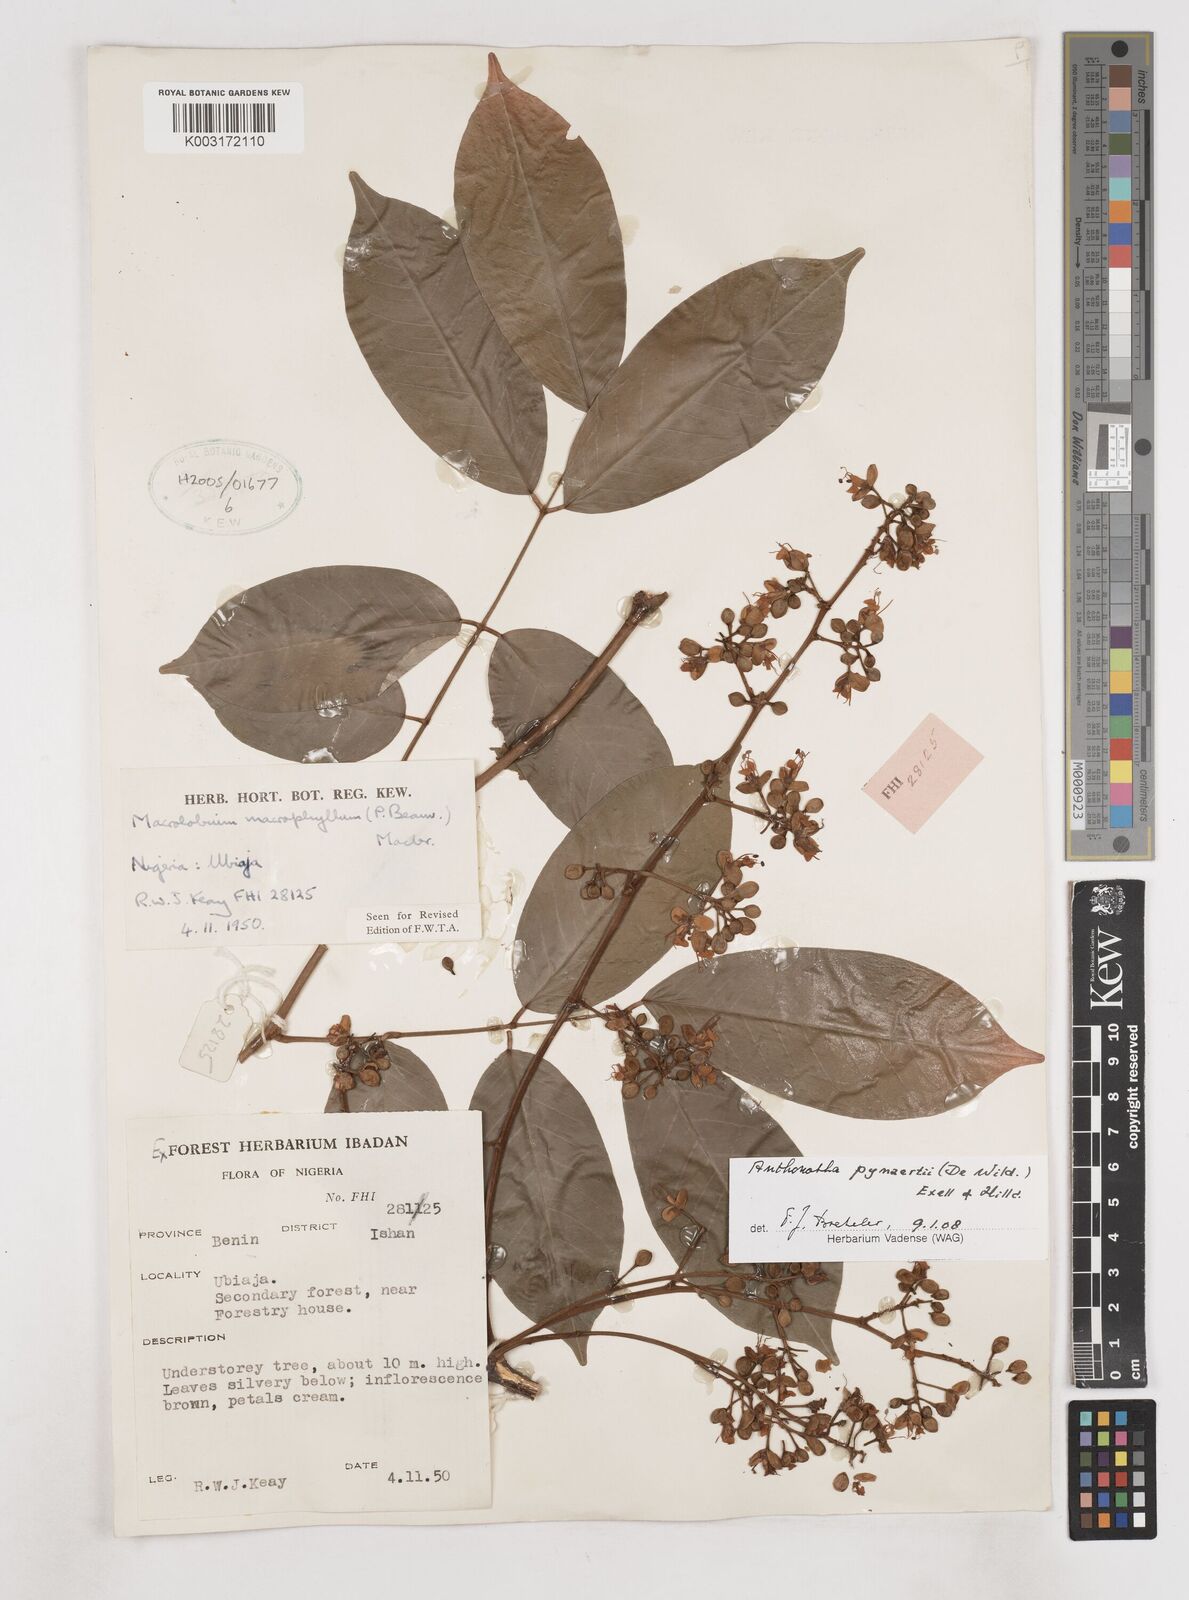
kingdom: Plantae
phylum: Tracheophyta
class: Magnoliopsida
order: Fabales
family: Fabaceae
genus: Anthonotha
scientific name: Anthonotha pynaertii
